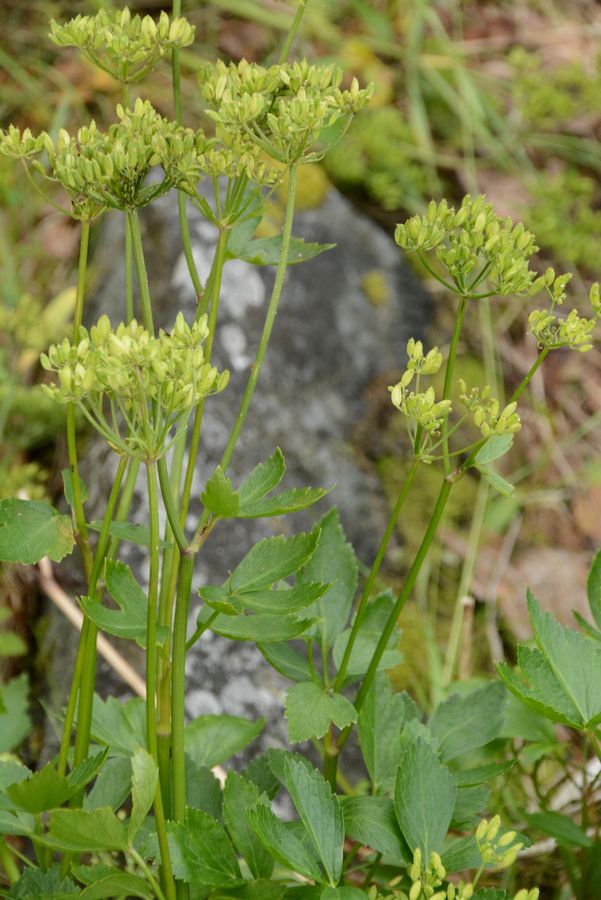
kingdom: Plantae
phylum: Tracheophyta
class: Magnoliopsida
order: Apiales
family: Apiaceae
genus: Ligusticum
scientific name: Ligusticum scothicum
